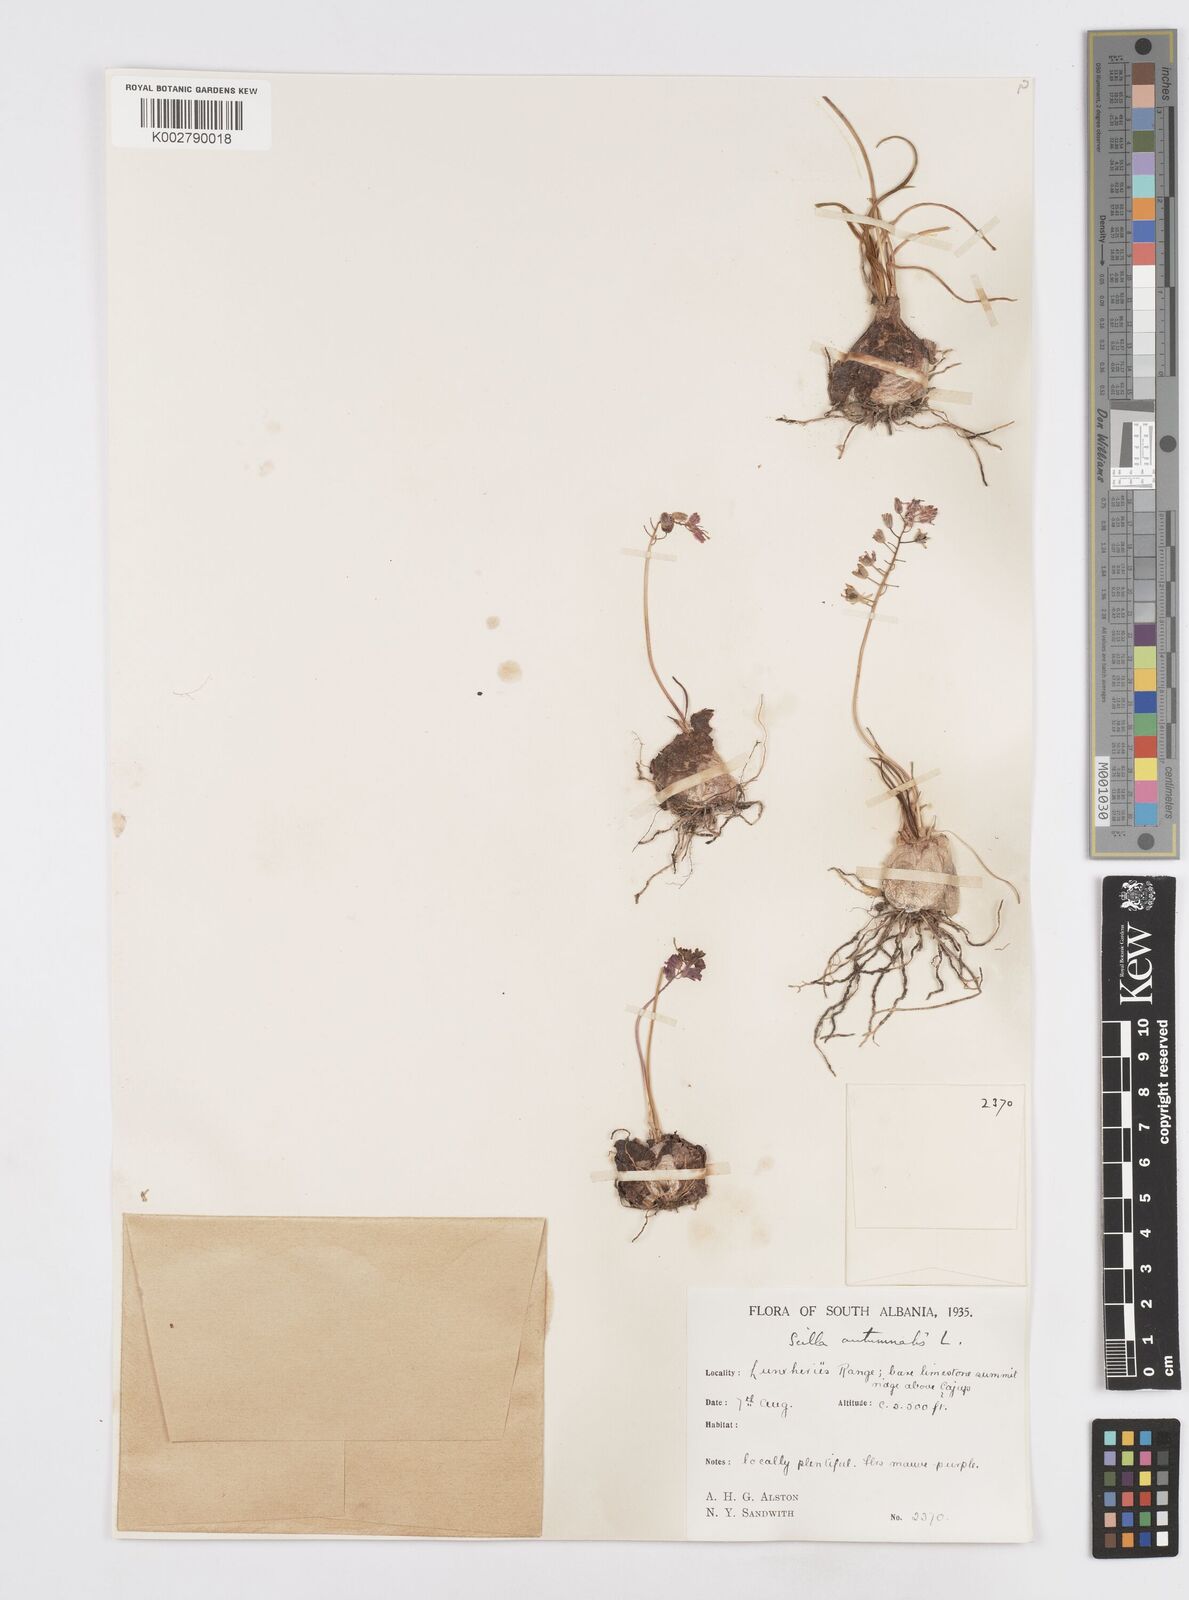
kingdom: Plantae
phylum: Tracheophyta
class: Liliopsida
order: Asparagales
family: Asparagaceae
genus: Prospero
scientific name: Prospero autumnale
